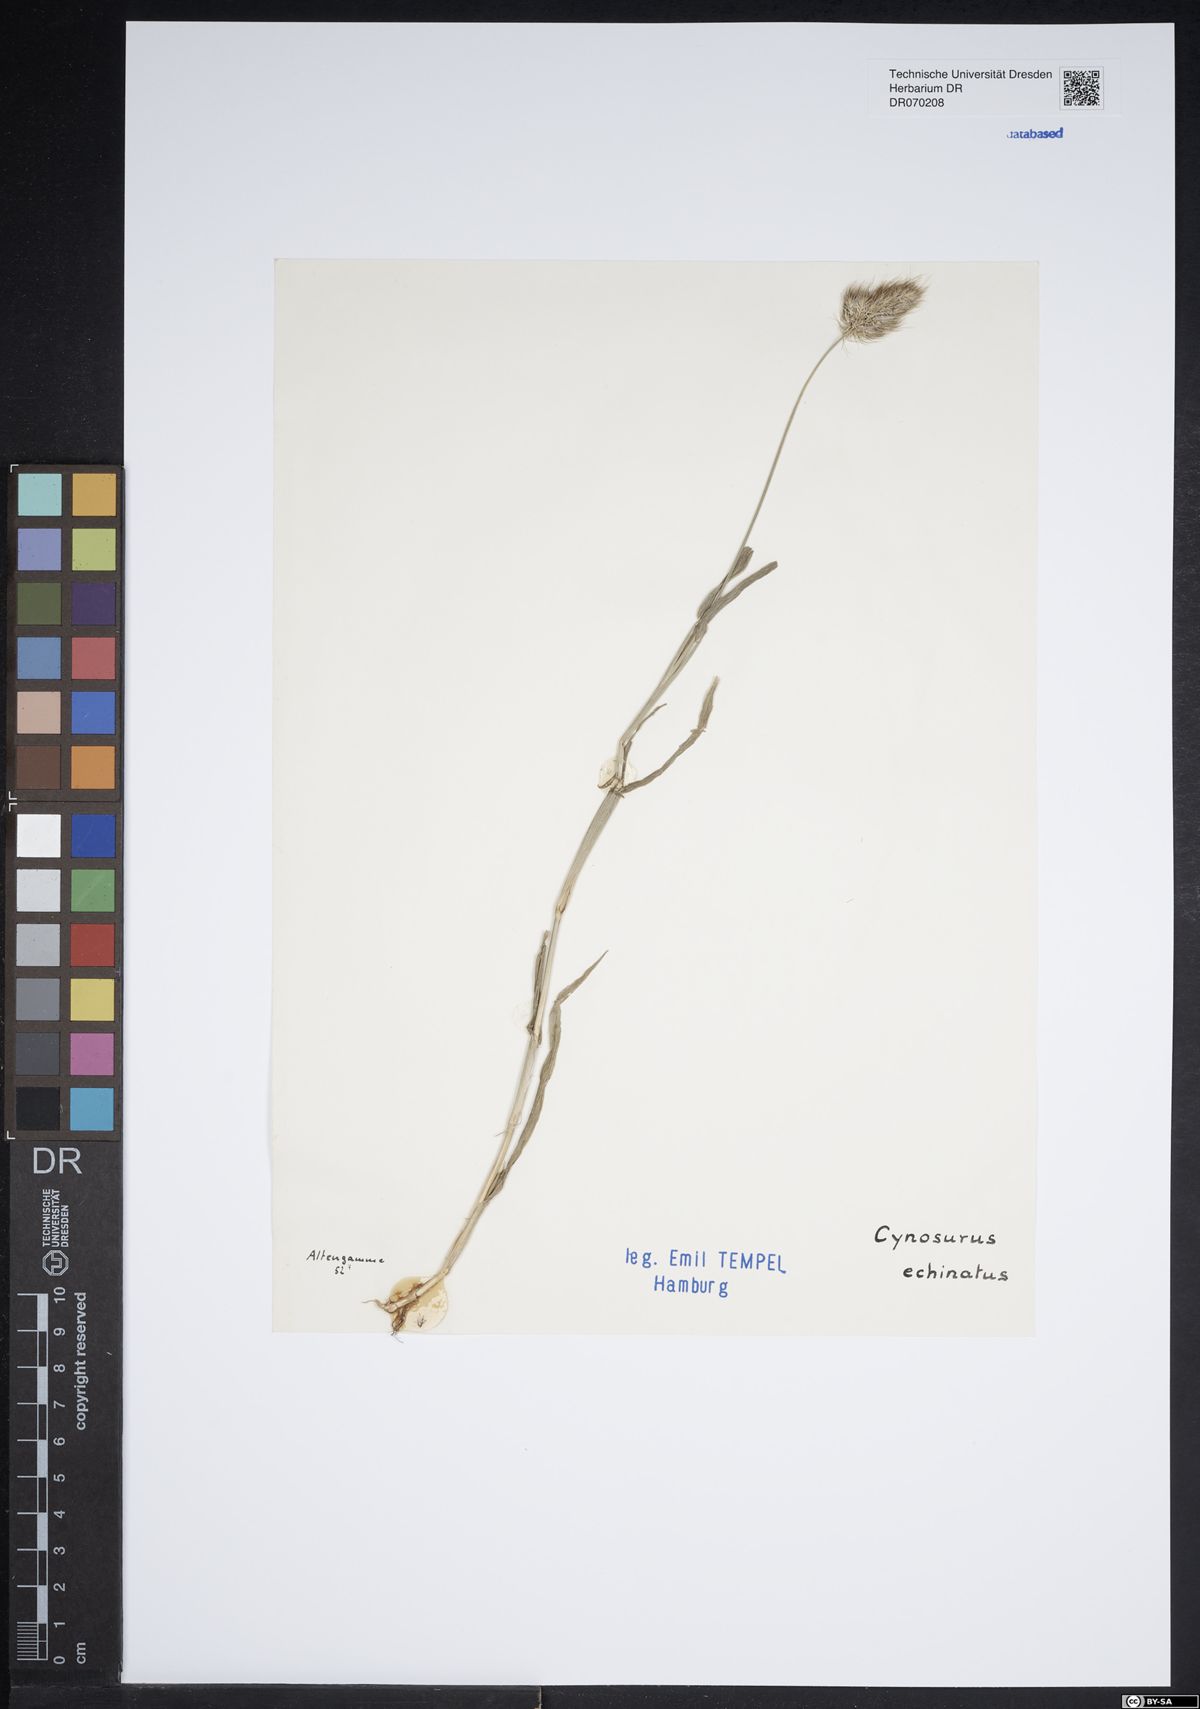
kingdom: Plantae
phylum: Tracheophyta
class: Liliopsida
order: Poales
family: Poaceae
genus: Cynosurus
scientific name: Cynosurus echinatus
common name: Rough dog's-tail
